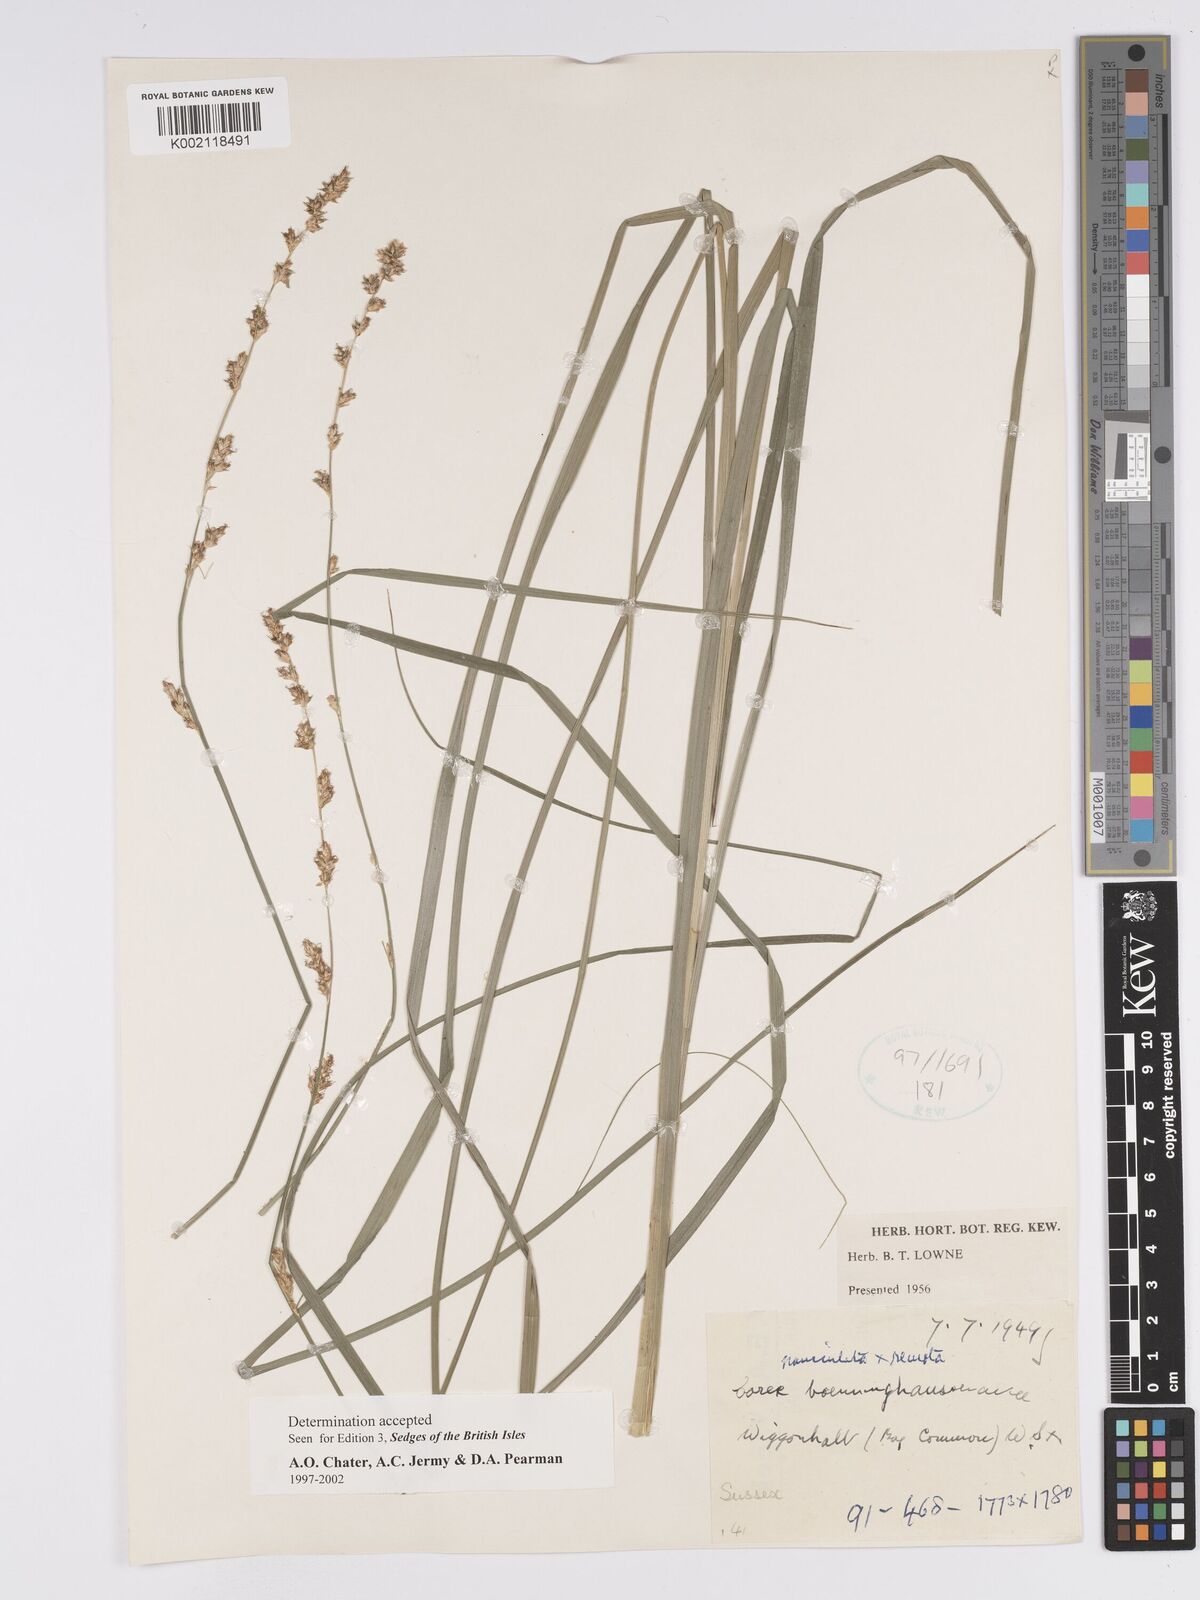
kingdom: Plantae
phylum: Tracheophyta
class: Liliopsida
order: Poales
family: Cyperaceae
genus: Carex
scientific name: Carex boenninghausiana
